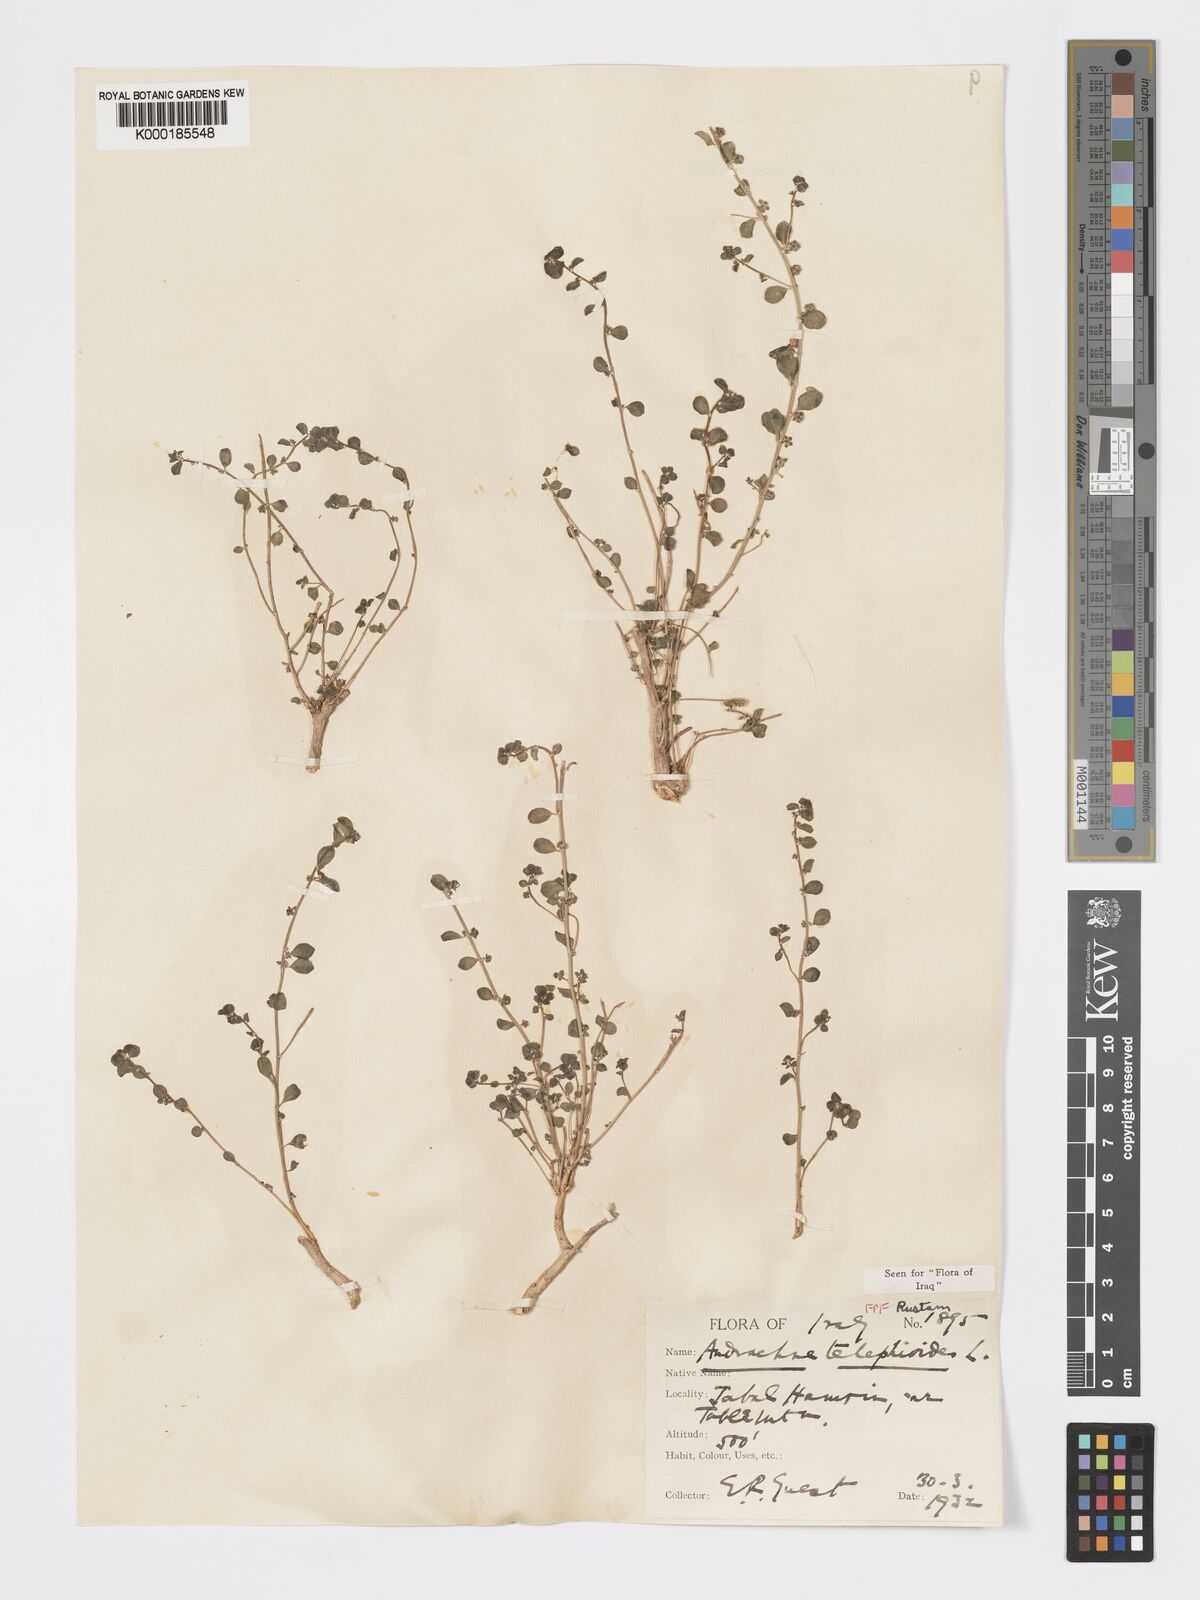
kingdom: Plantae
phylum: Tracheophyta
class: Magnoliopsida
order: Malpighiales
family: Phyllanthaceae
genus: Andrachne
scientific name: Andrachne telephioides
